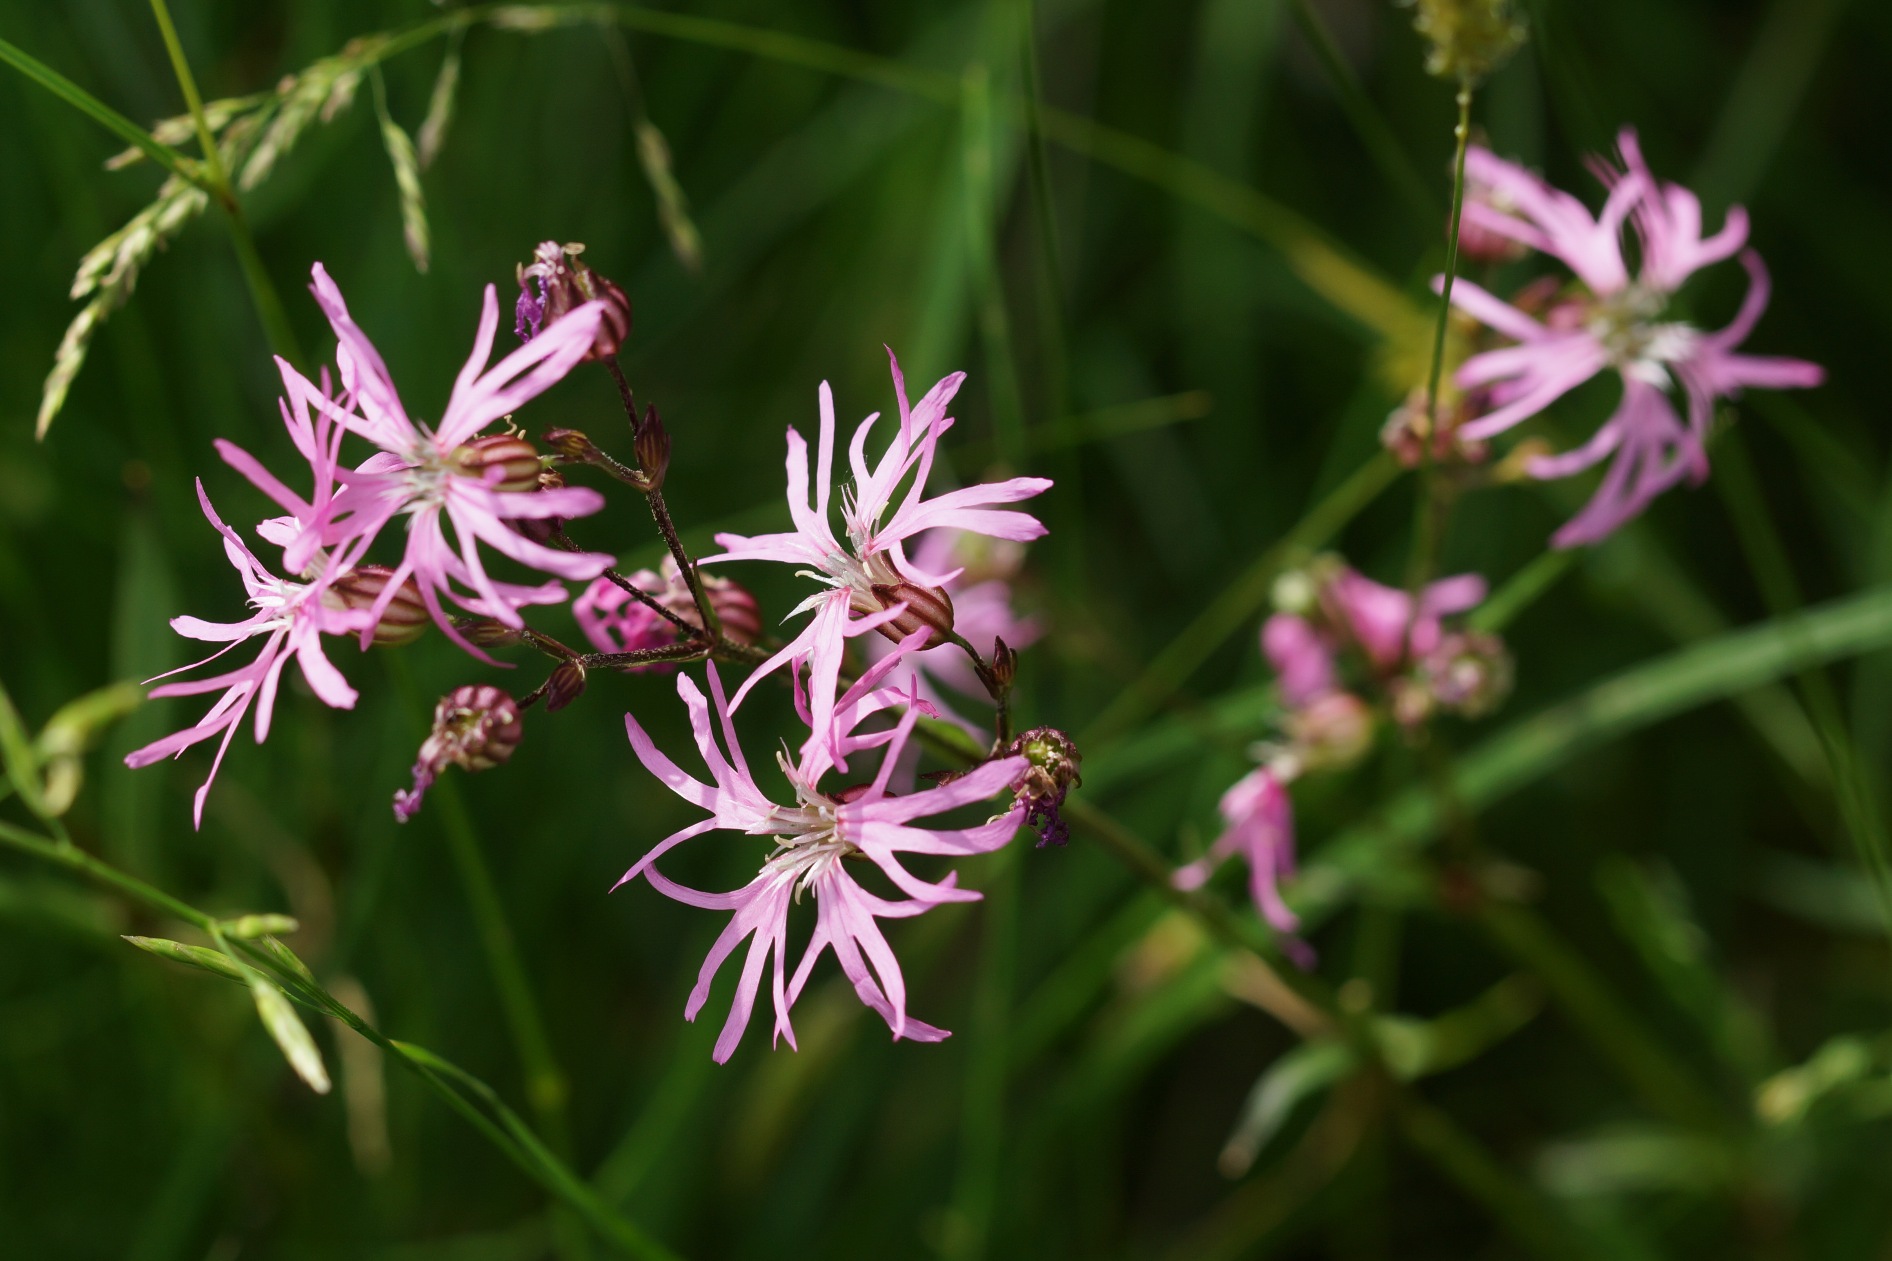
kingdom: Plantae
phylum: Tracheophyta
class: Magnoliopsida
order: Caryophyllales
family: Caryophyllaceae
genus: Silene
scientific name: Silene flos-cuculi
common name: Trævlekrone
